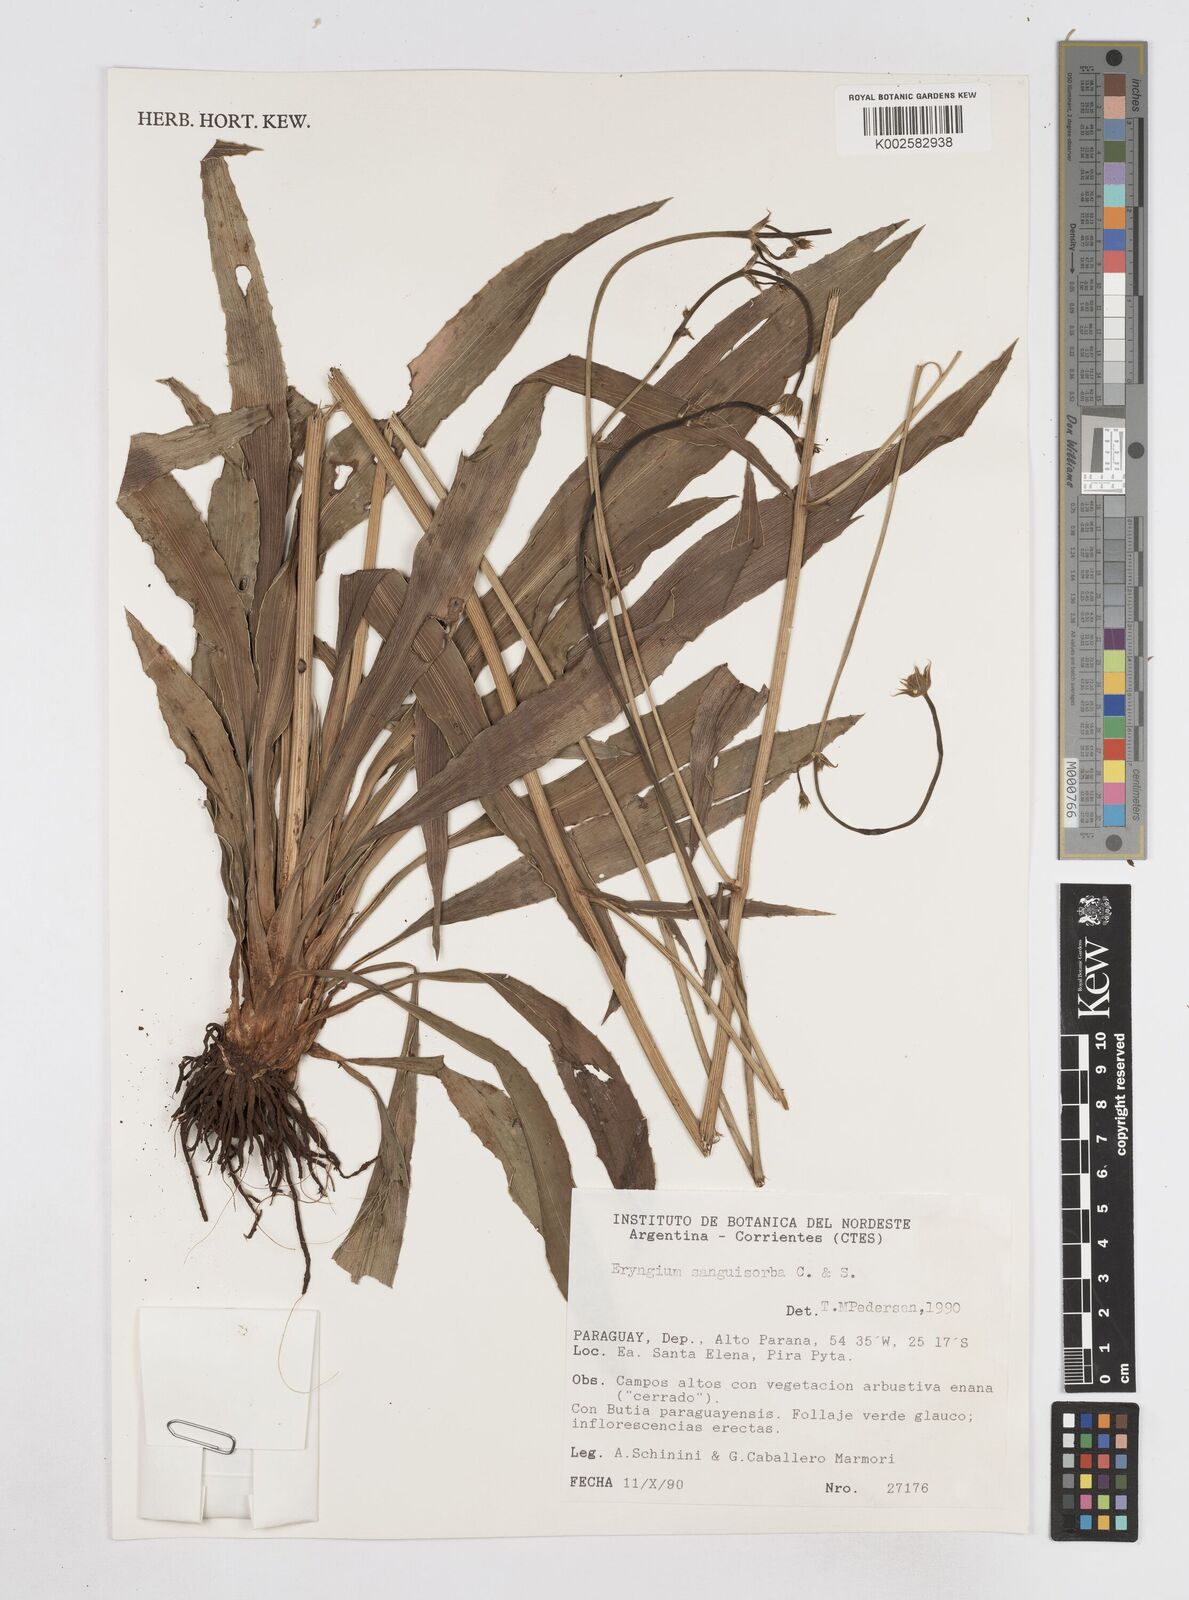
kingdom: Plantae
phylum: Tracheophyta
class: Magnoliopsida
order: Apiales
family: Apiaceae
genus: Eryngium
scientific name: Eryngium sanguisorba
